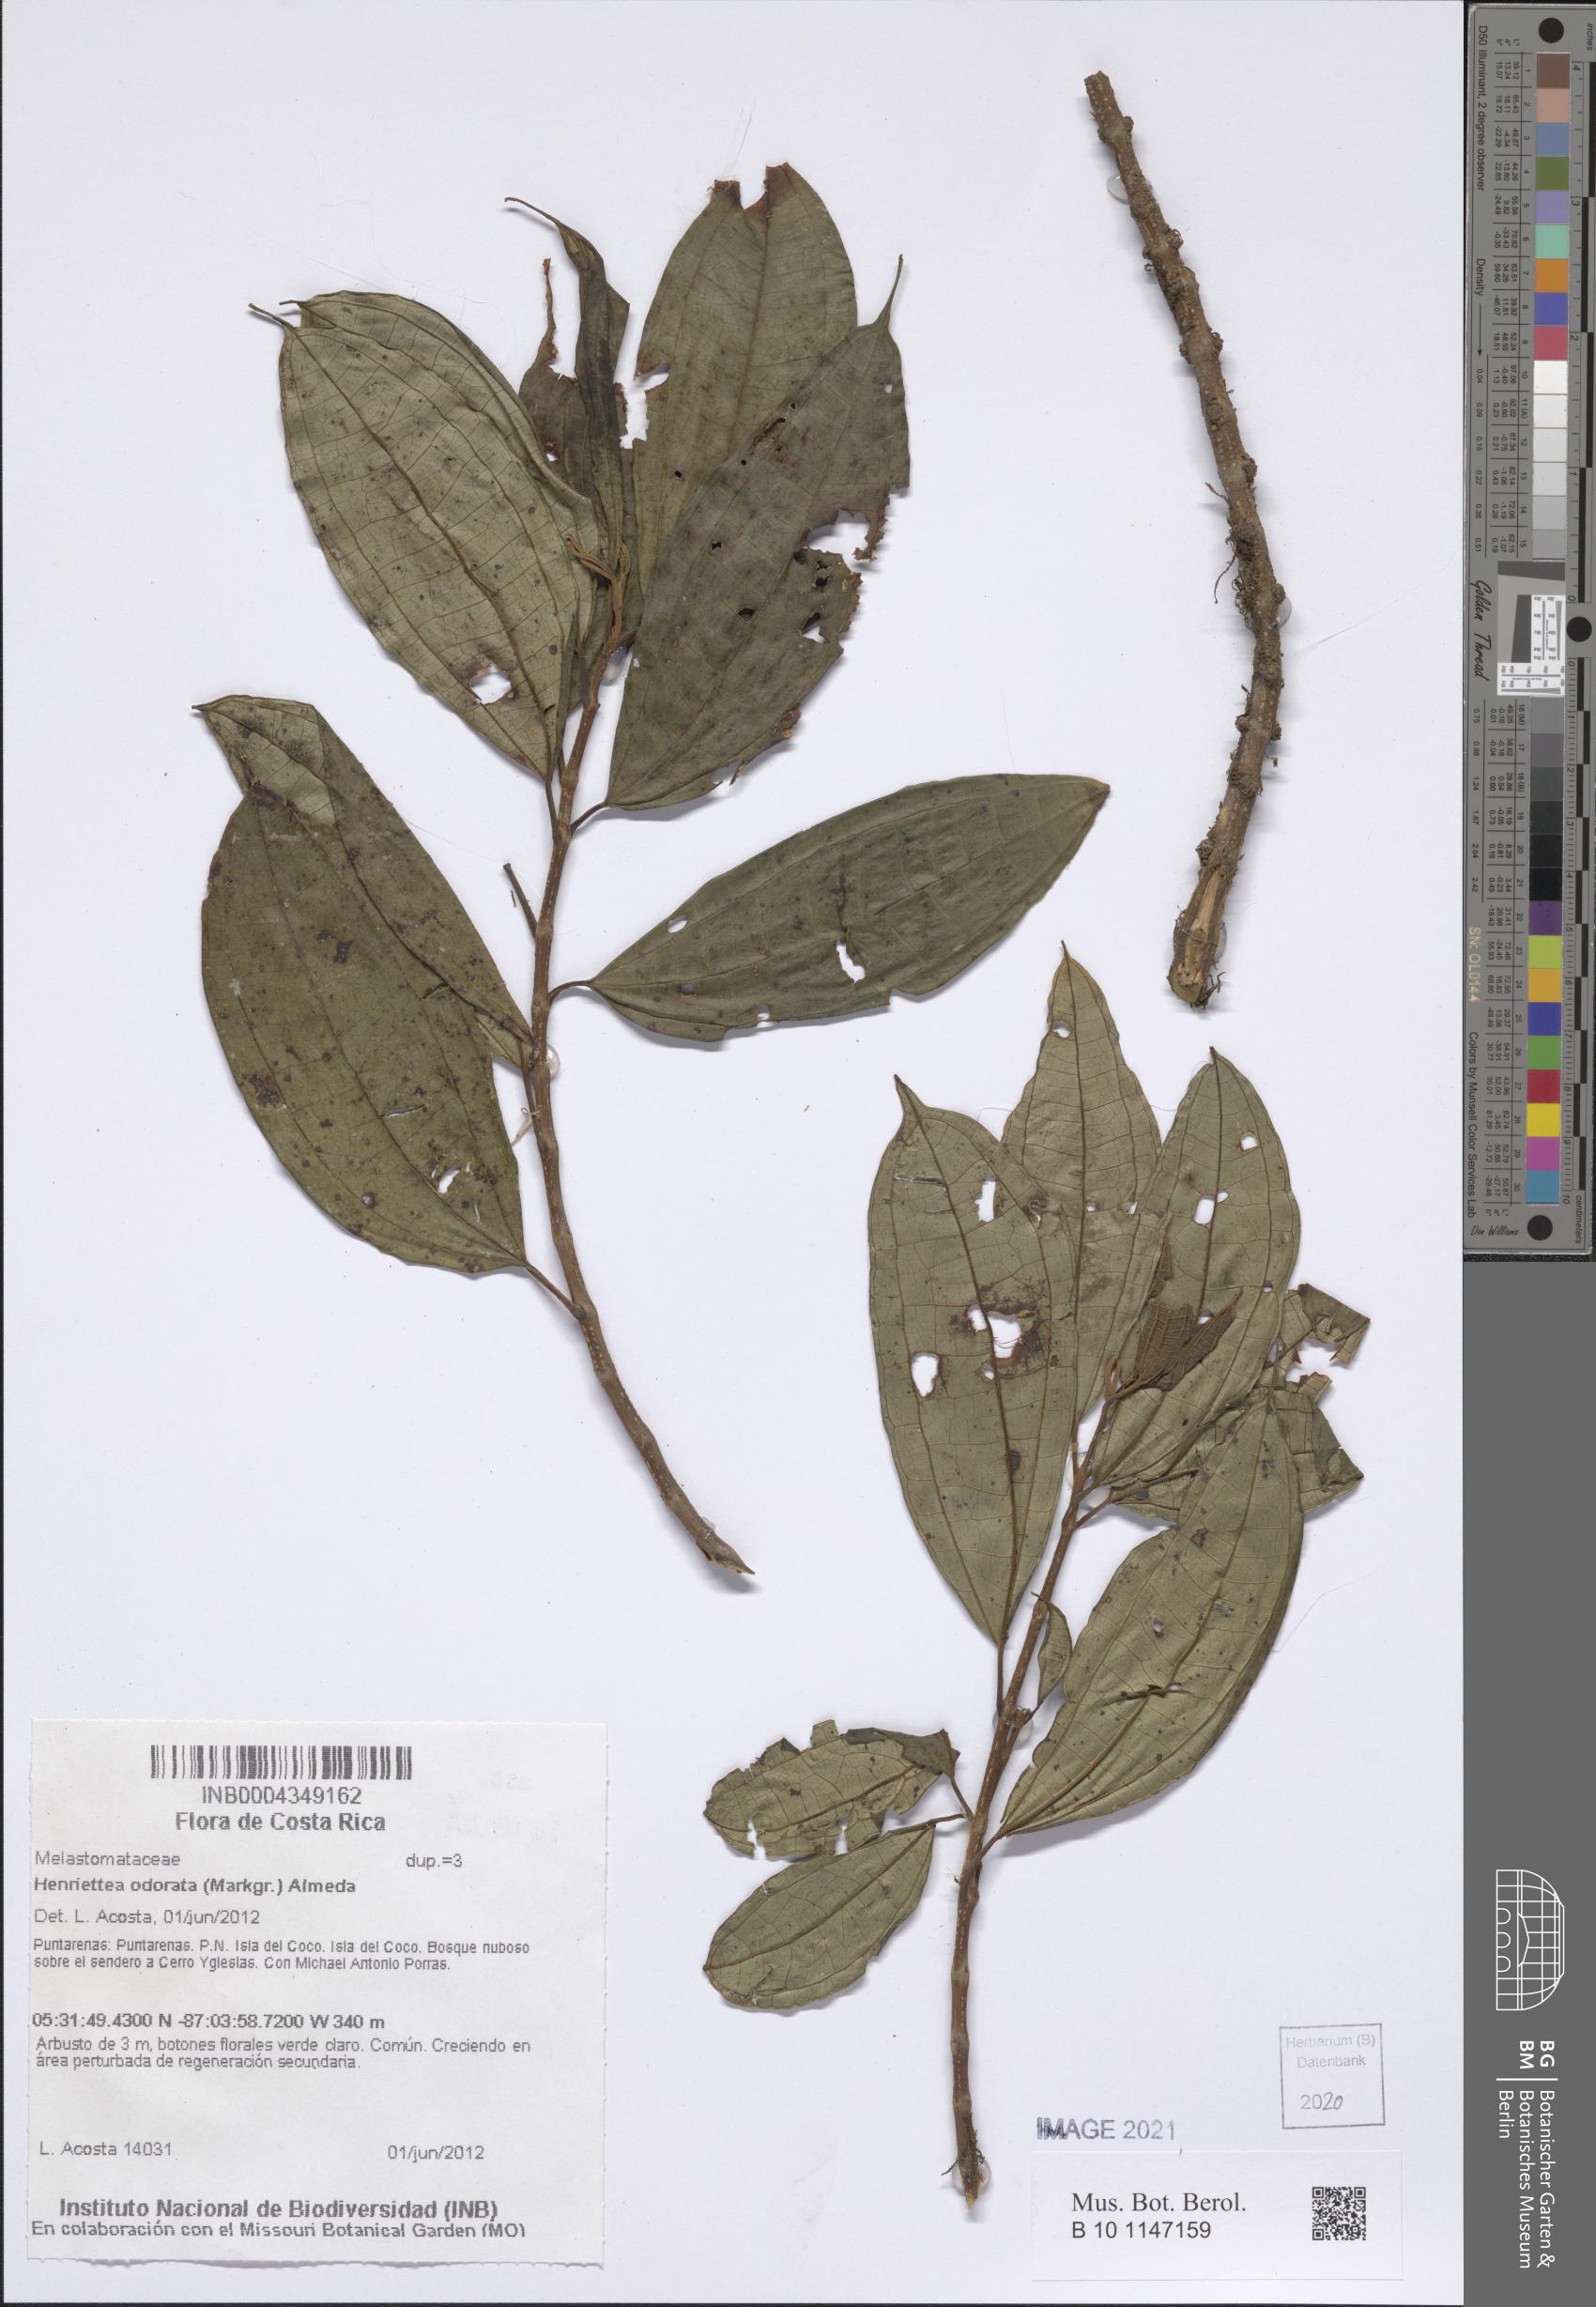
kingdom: Plantae
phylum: Tracheophyta
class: Magnoliopsida
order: Myrtales
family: Melastomataceae
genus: Henriettea
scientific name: Henriettea odorata
